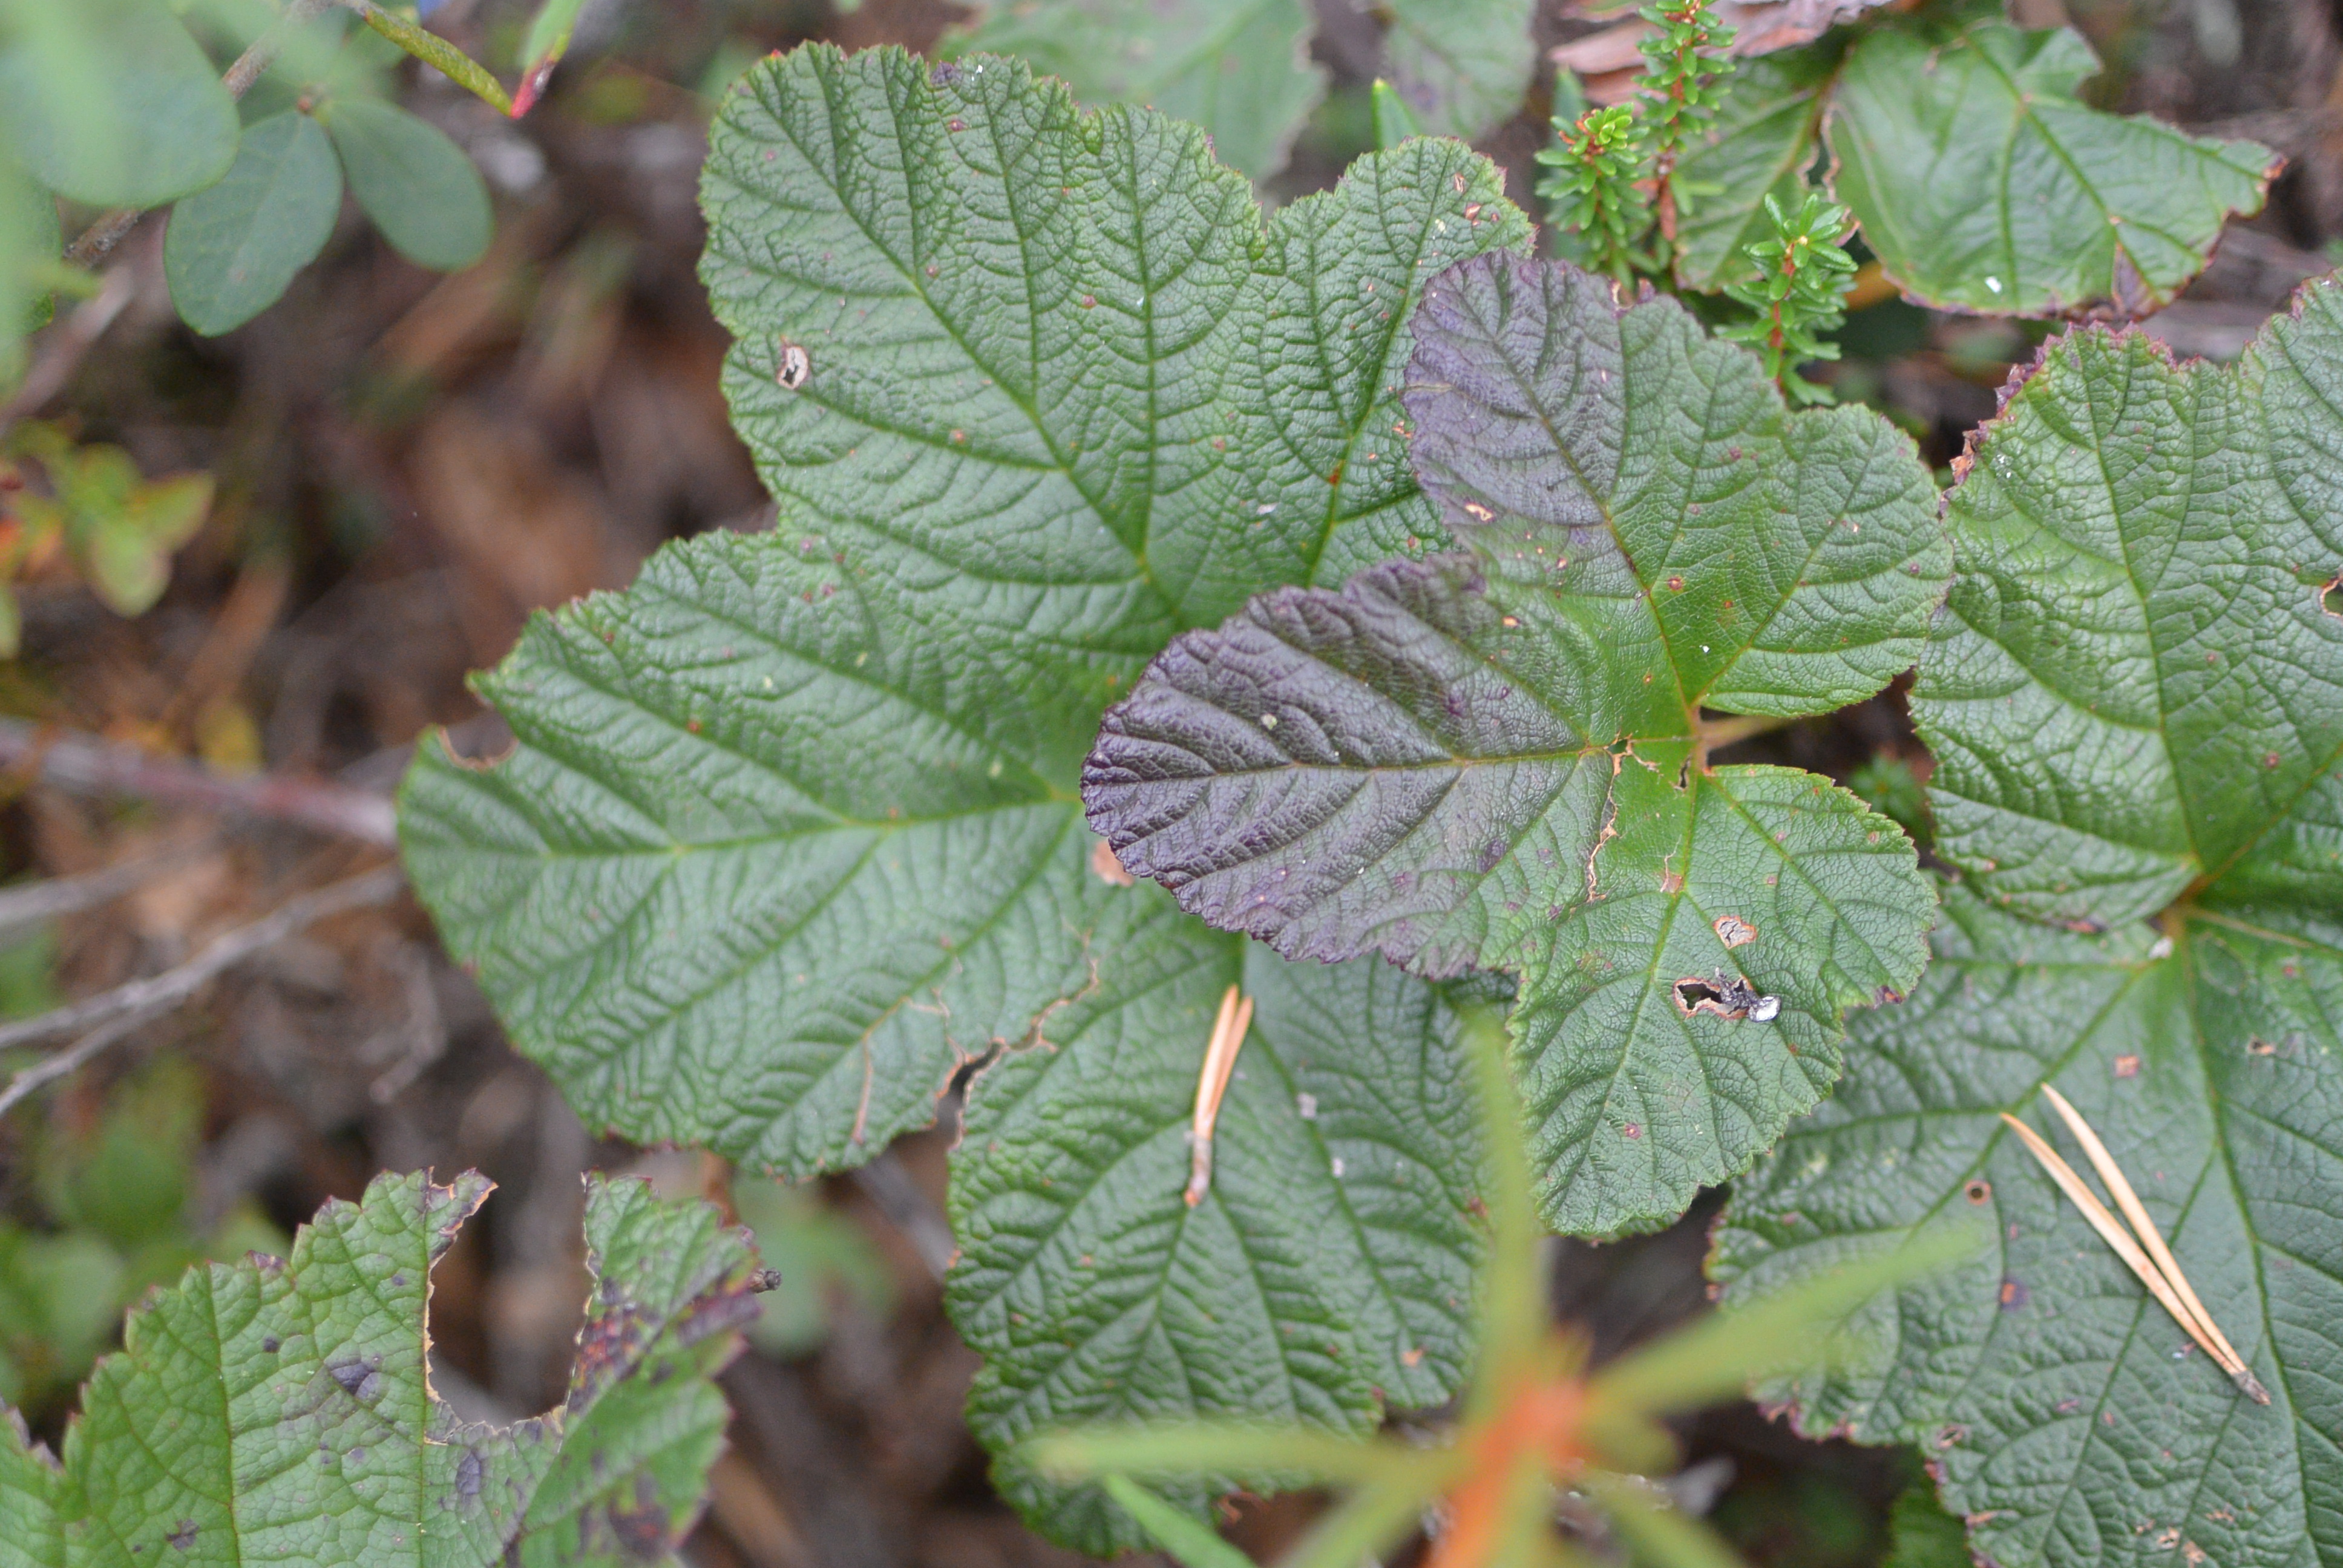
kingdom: Plantae
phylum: Tracheophyta
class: Magnoliopsida
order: Rosales
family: Rosaceae
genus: Rubus
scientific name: Rubus chamaemorus
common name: Cloudberry
